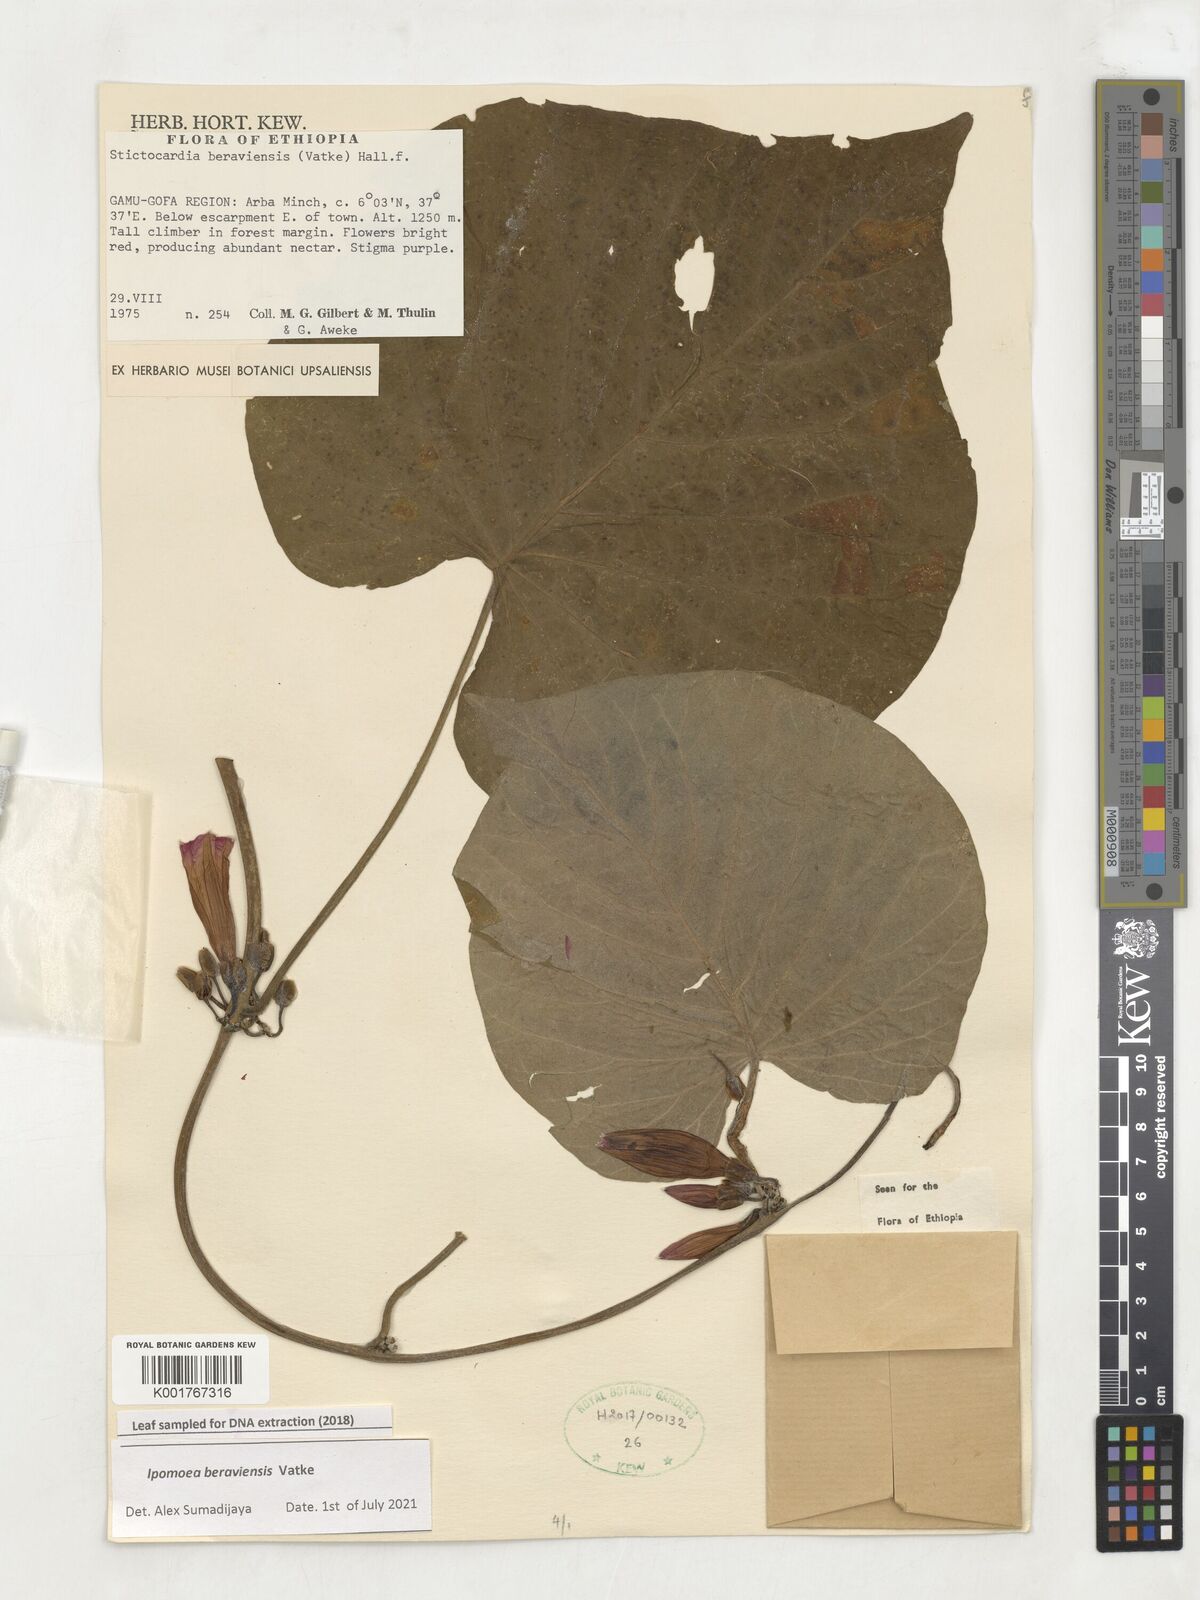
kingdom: Plantae
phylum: Tracheophyta
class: Magnoliopsida
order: Solanales
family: Convolvulaceae
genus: Stictocardia
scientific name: Stictocardia beraviensis
